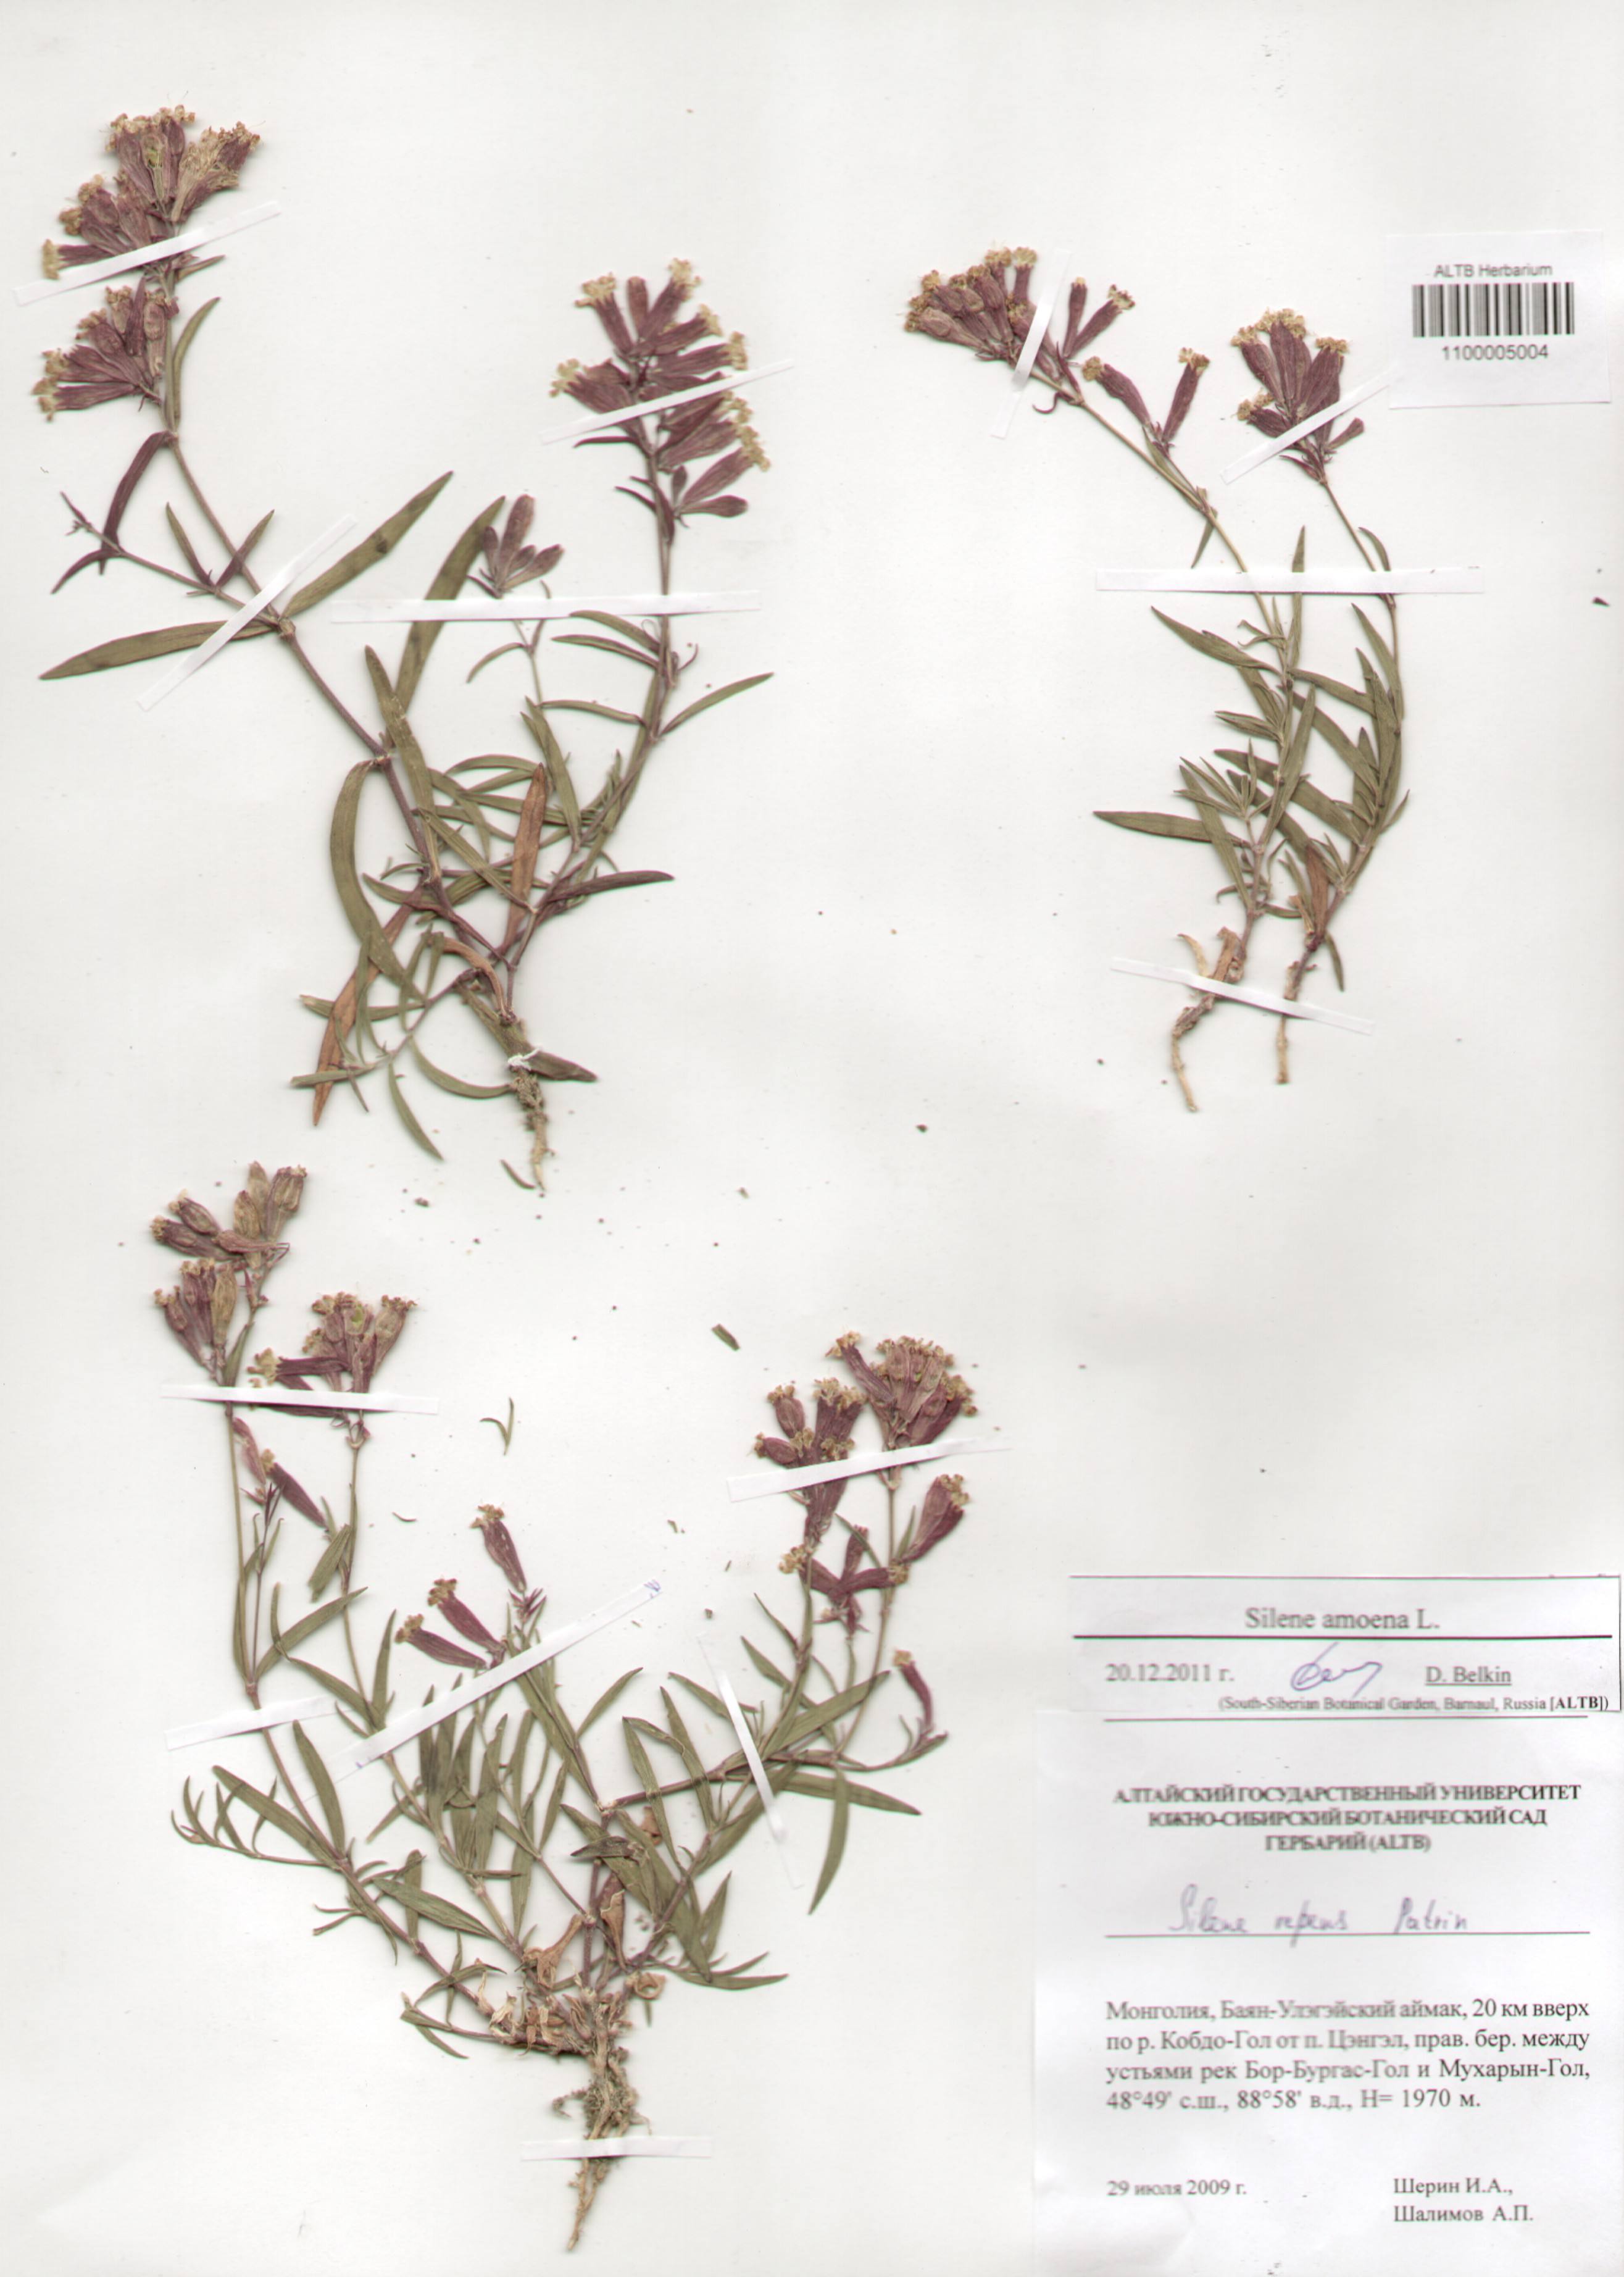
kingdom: Plantae
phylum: Tracheophyta
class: Magnoliopsida
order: Caryophyllales
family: Caryophyllaceae
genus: Silene
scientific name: Silene amoena
